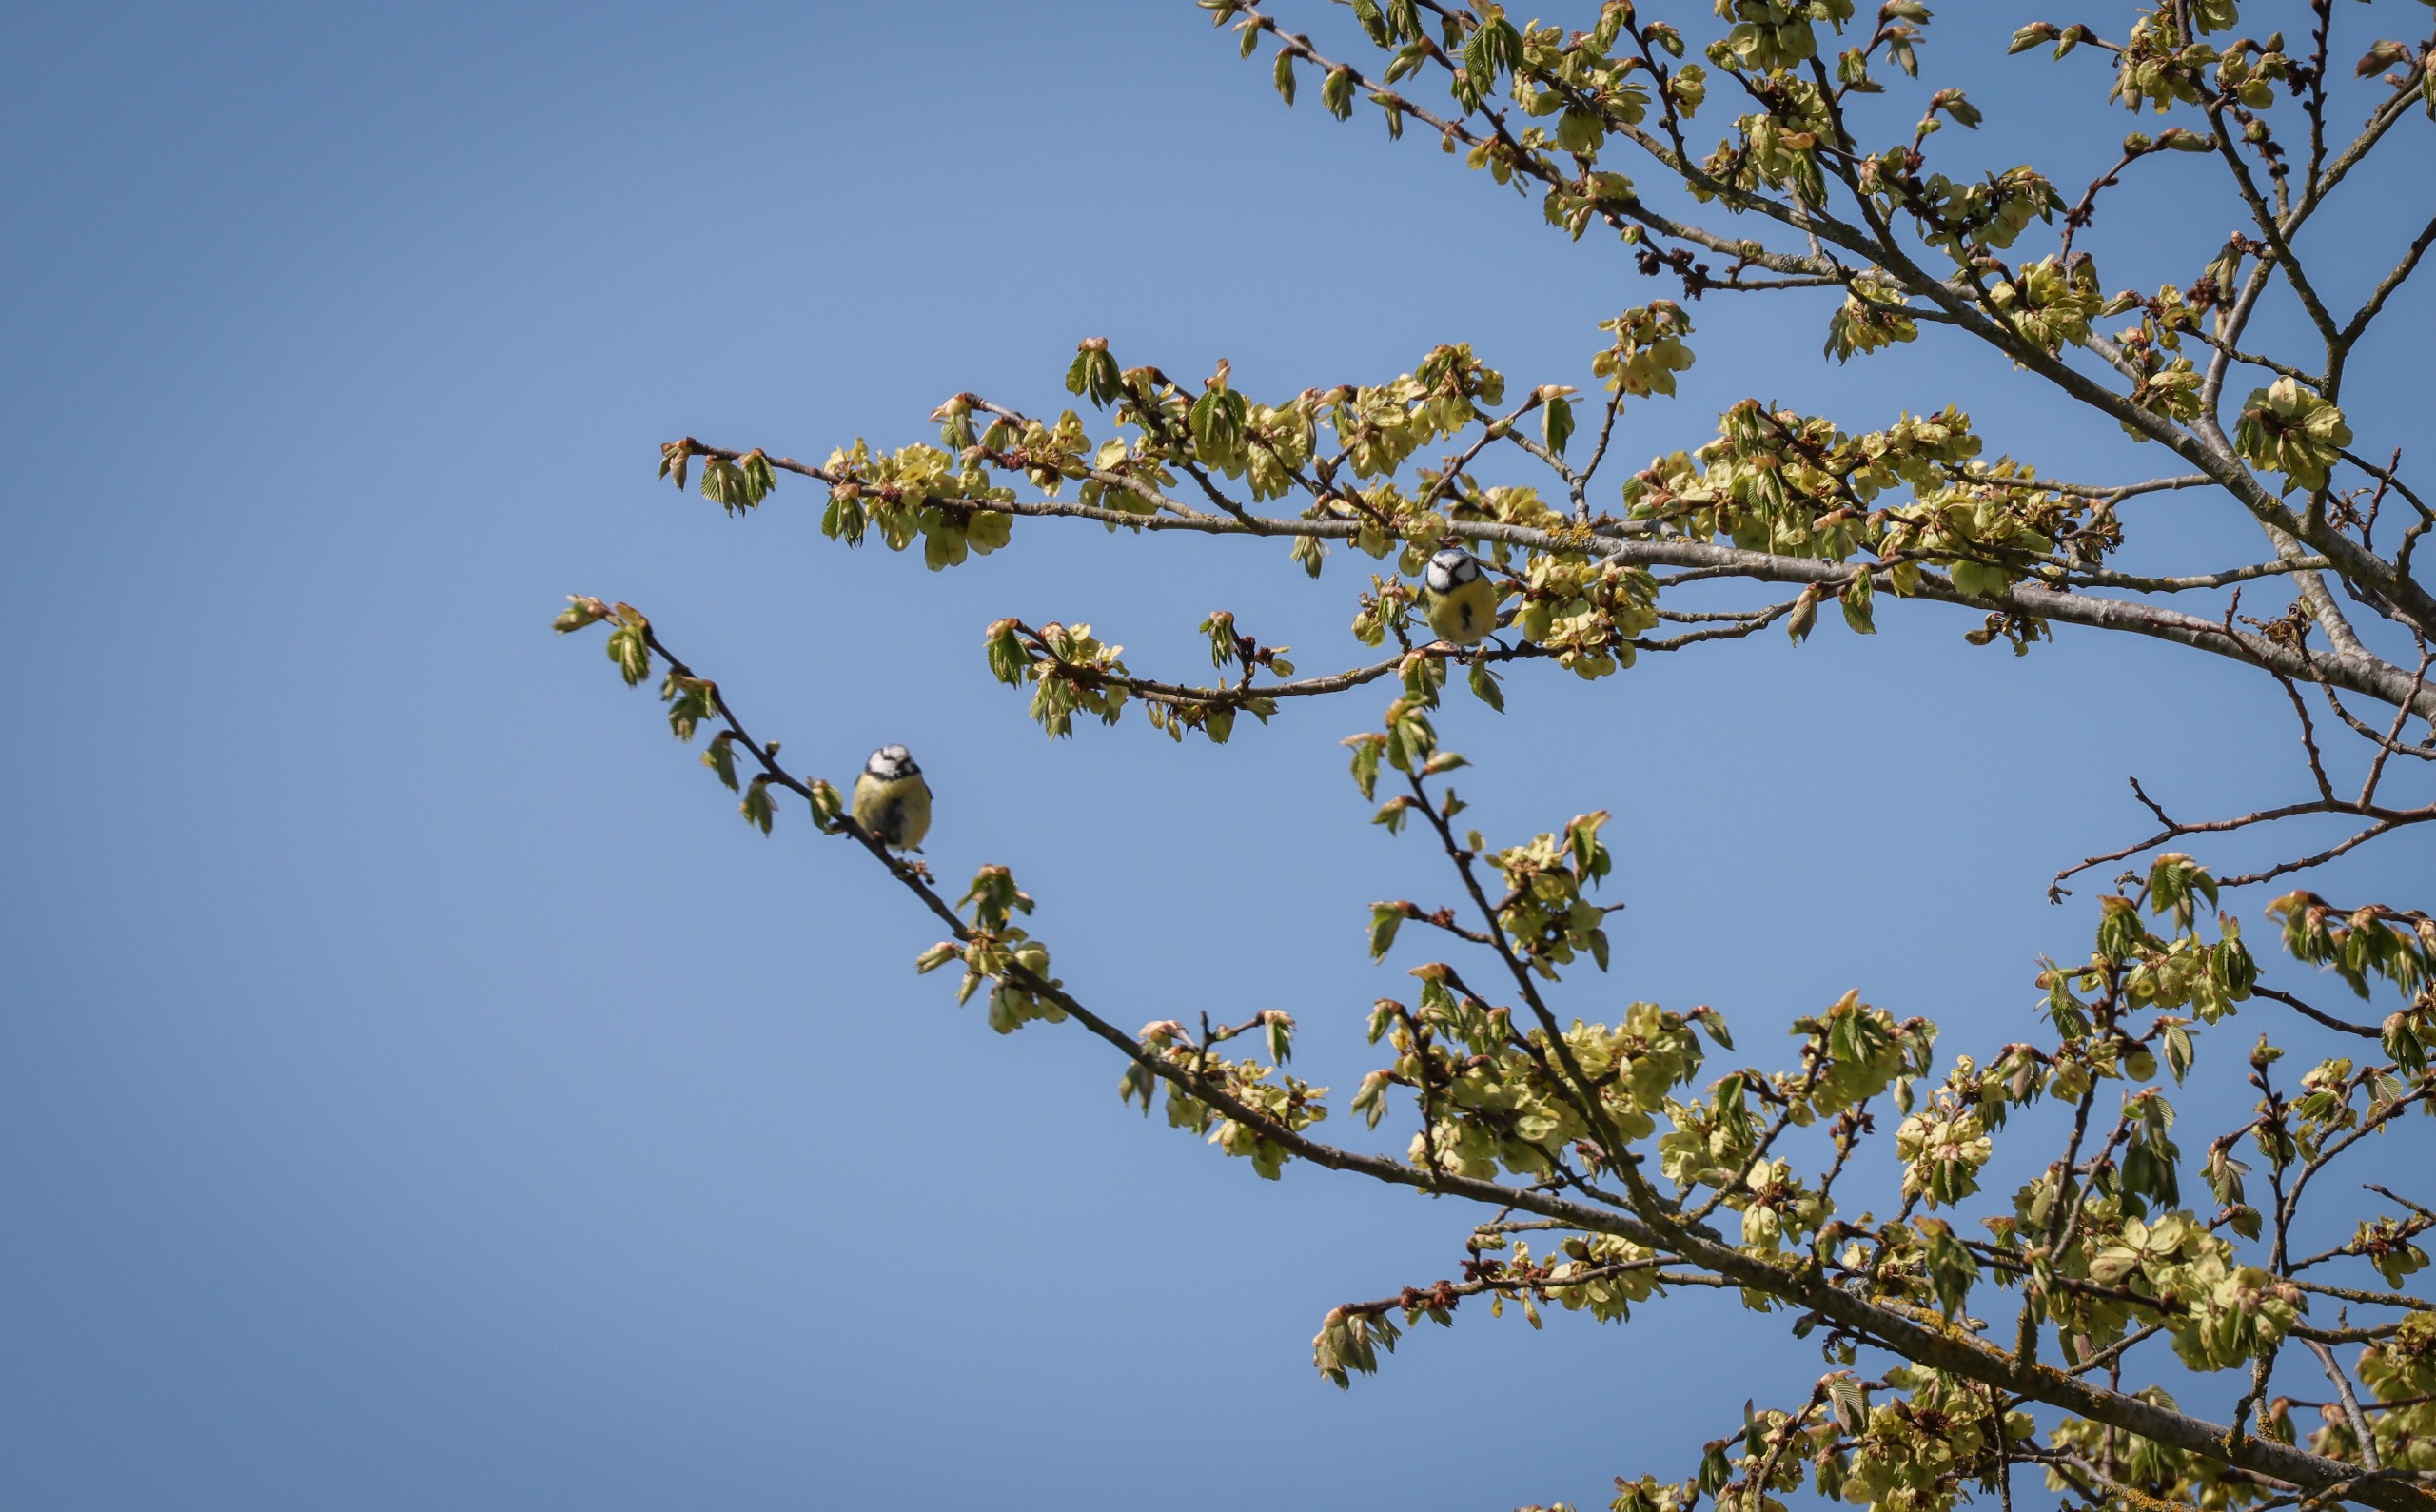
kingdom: Animalia
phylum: Chordata
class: Aves
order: Passeriformes
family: Paridae
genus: Cyanistes
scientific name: Cyanistes caeruleus
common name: Blåmejse
